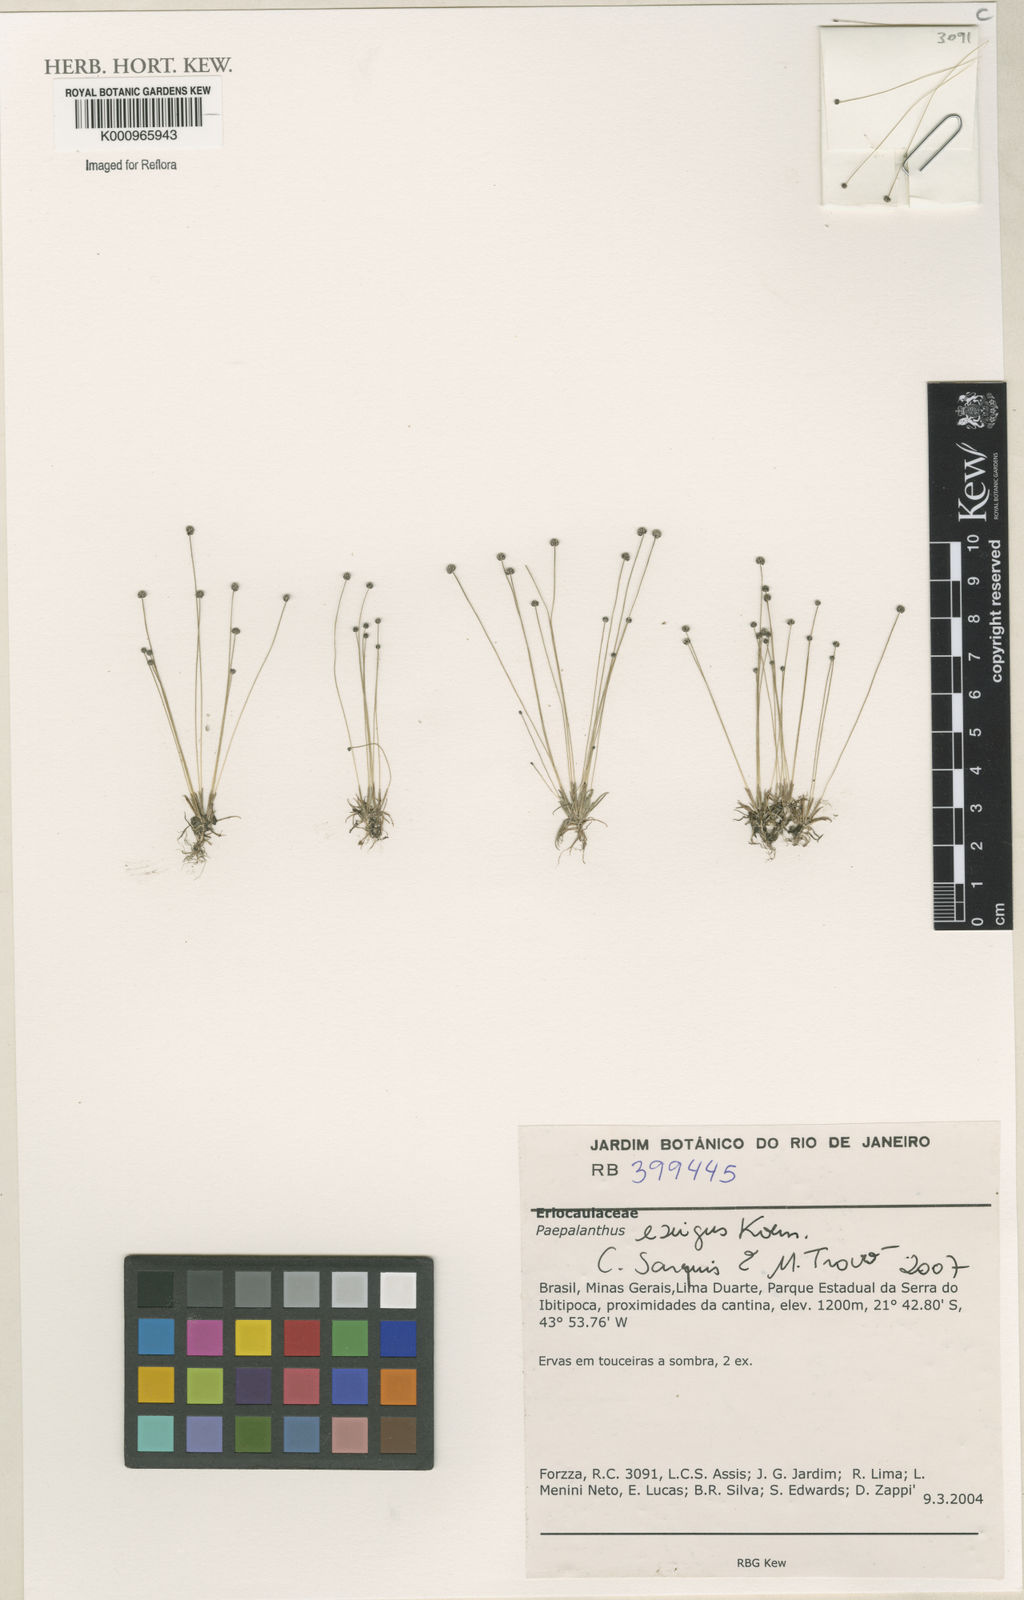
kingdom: Plantae
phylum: Tracheophyta
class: Liliopsida
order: Poales
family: Eriocaulaceae
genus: Paepalanthus
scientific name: Paepalanthus
